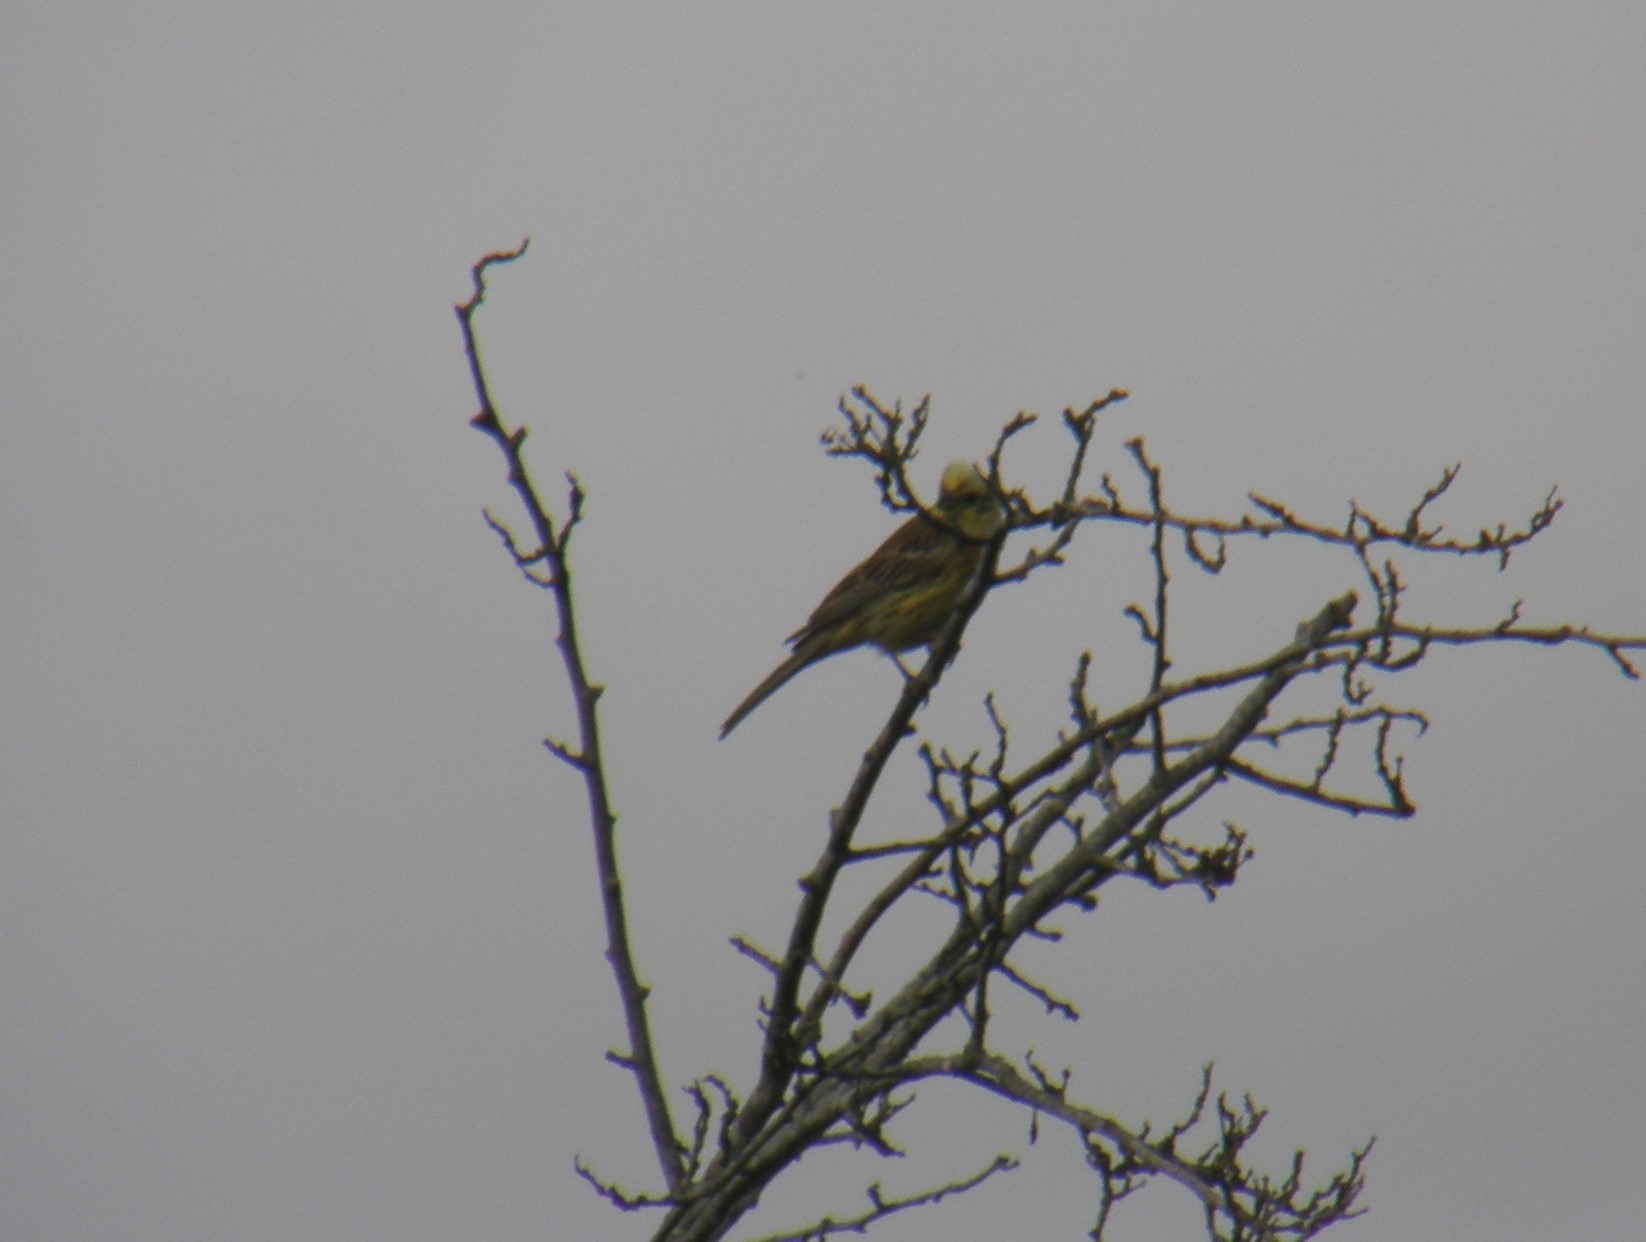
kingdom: Animalia
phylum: Chordata
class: Aves
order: Passeriformes
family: Emberizidae
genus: Emberiza
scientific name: Emberiza citrinella
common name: Gulspurv
